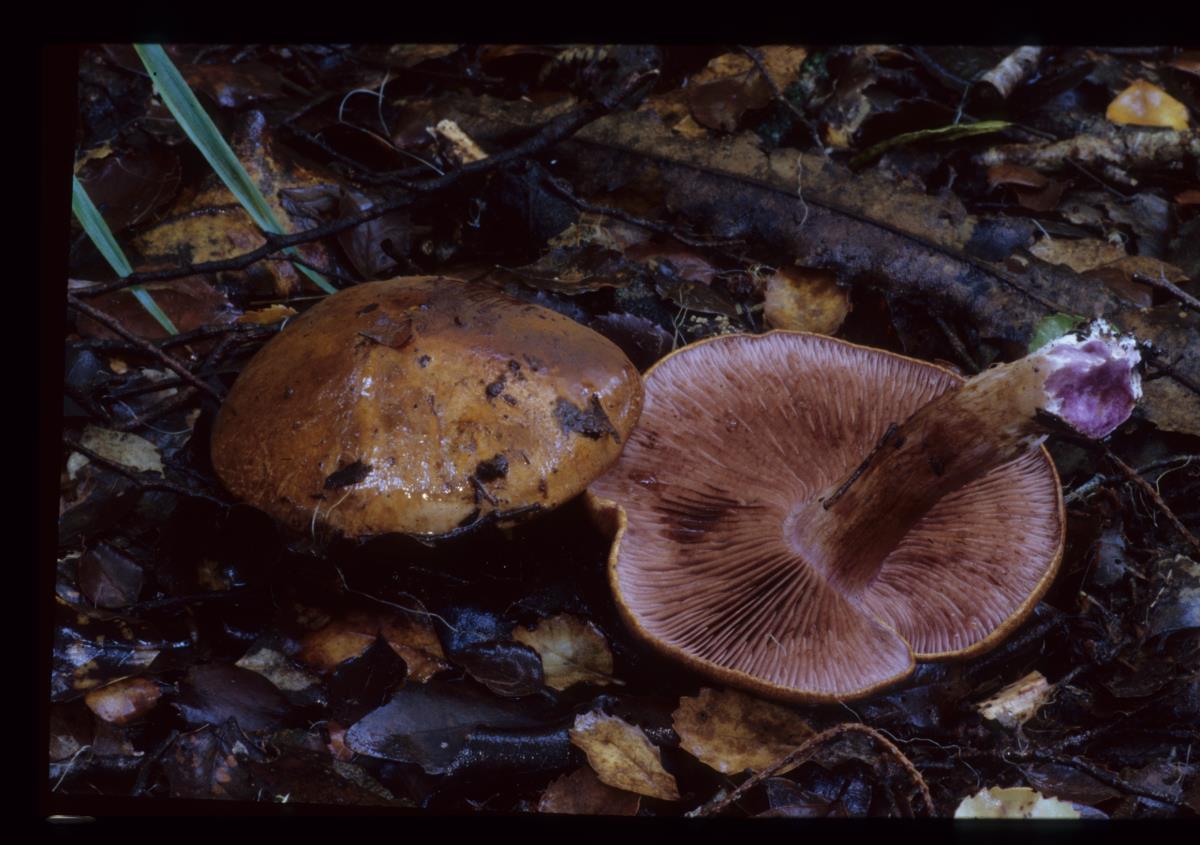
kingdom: Fungi
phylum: Basidiomycota
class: Agaricomycetes
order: Agaricales
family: Cortinariaceae
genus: Cortinarius
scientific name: Cortinarius
